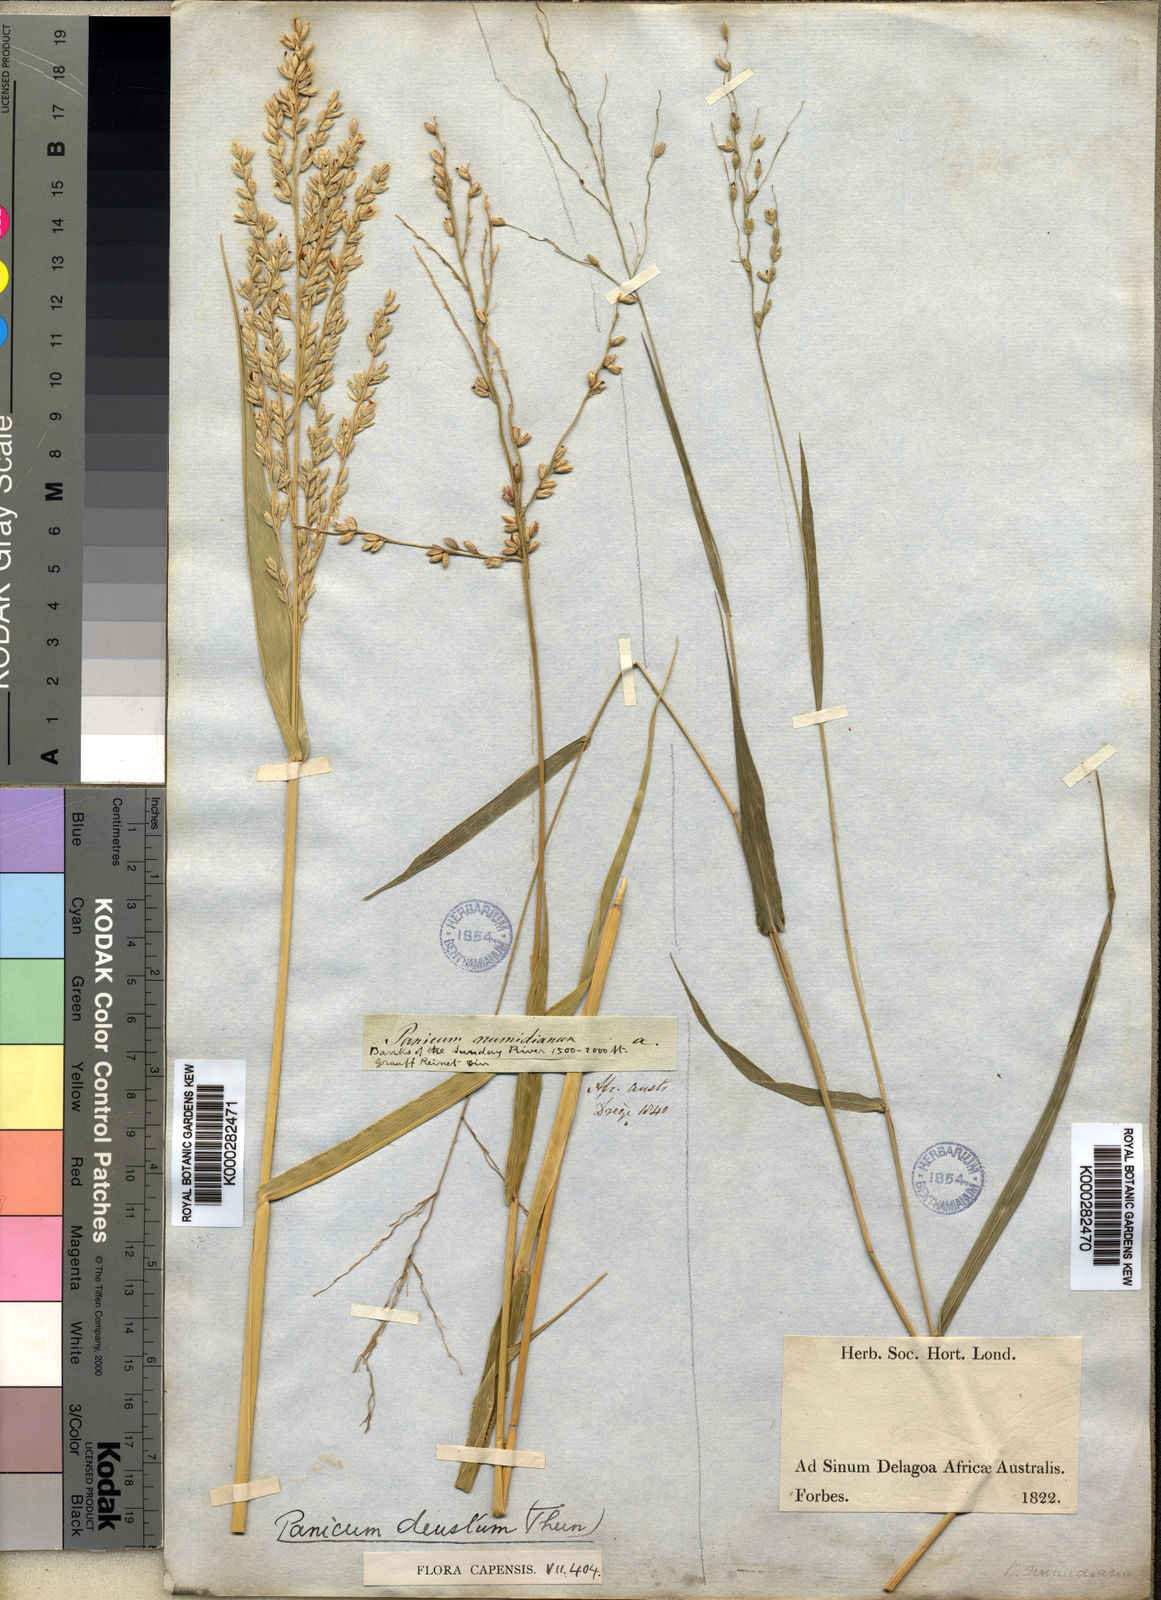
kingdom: Plantae
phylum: Tracheophyta
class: Liliopsida
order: Poales
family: Poaceae
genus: Panicum
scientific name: Panicum deustum
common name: Reed panicum
